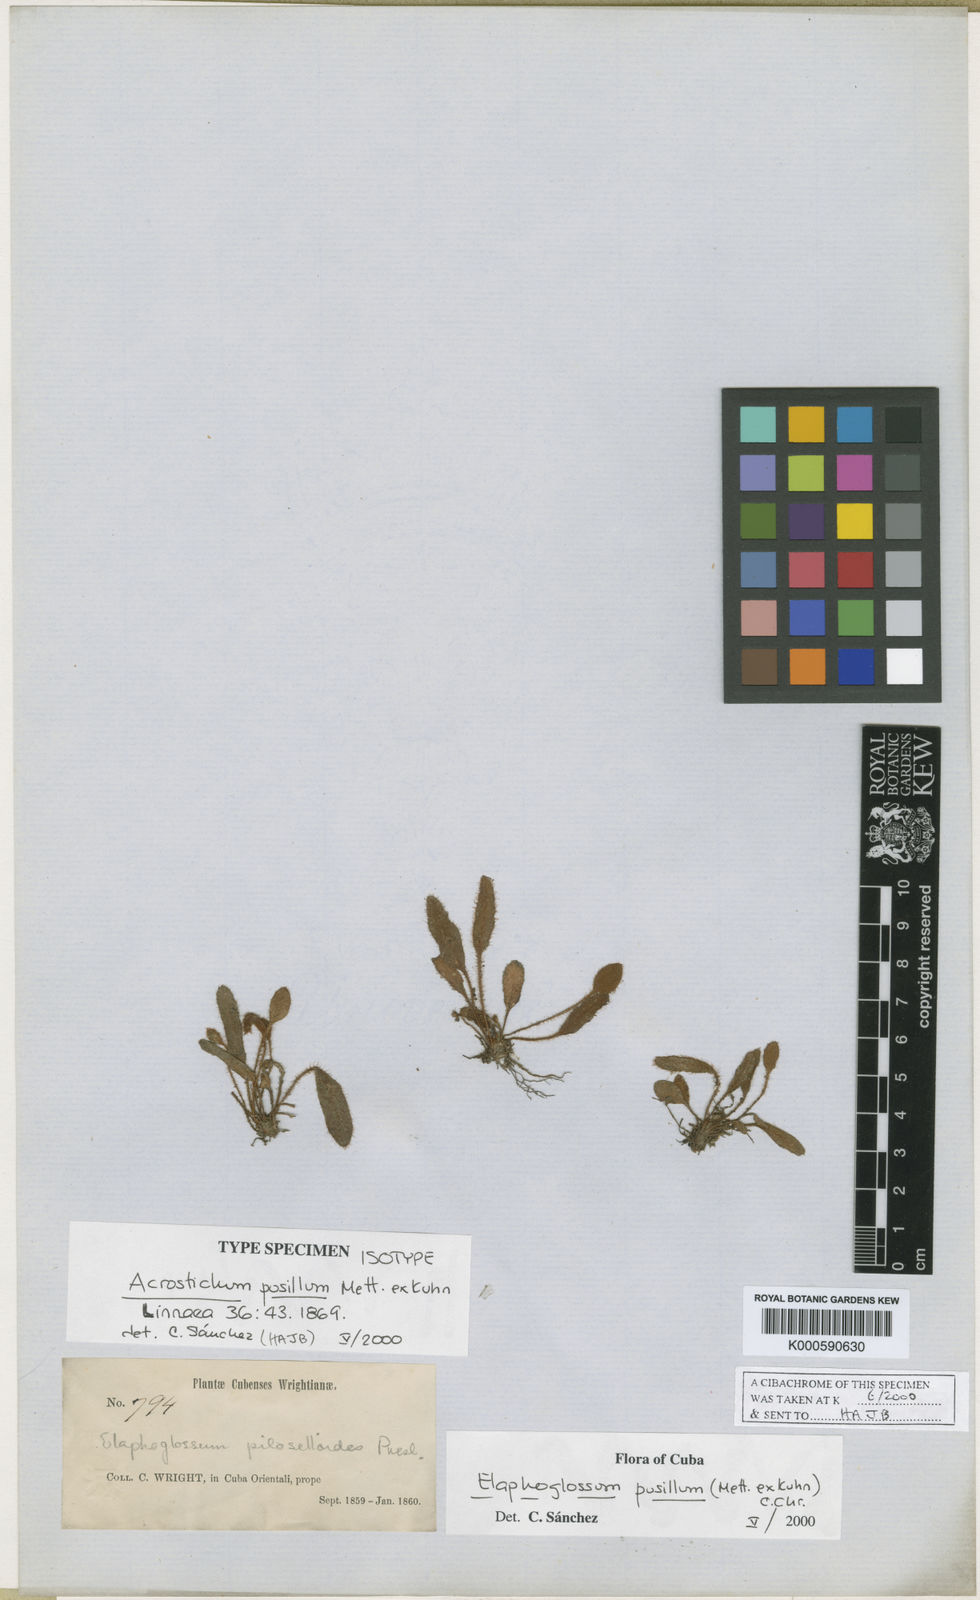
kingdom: Plantae
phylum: Tracheophyta
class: Polypodiopsida
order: Polypodiales
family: Dryopteridaceae
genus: Elaphoglossum
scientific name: Elaphoglossum pusillum
